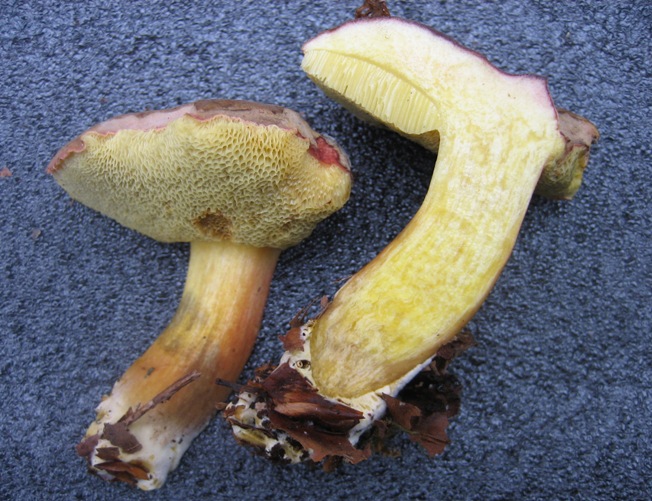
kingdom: Fungi
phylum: Basidiomycota
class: Agaricomycetes
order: Boletales
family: Boletaceae
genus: Xerocomellus
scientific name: Xerocomellus pruinatus
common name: dugget rørhat
